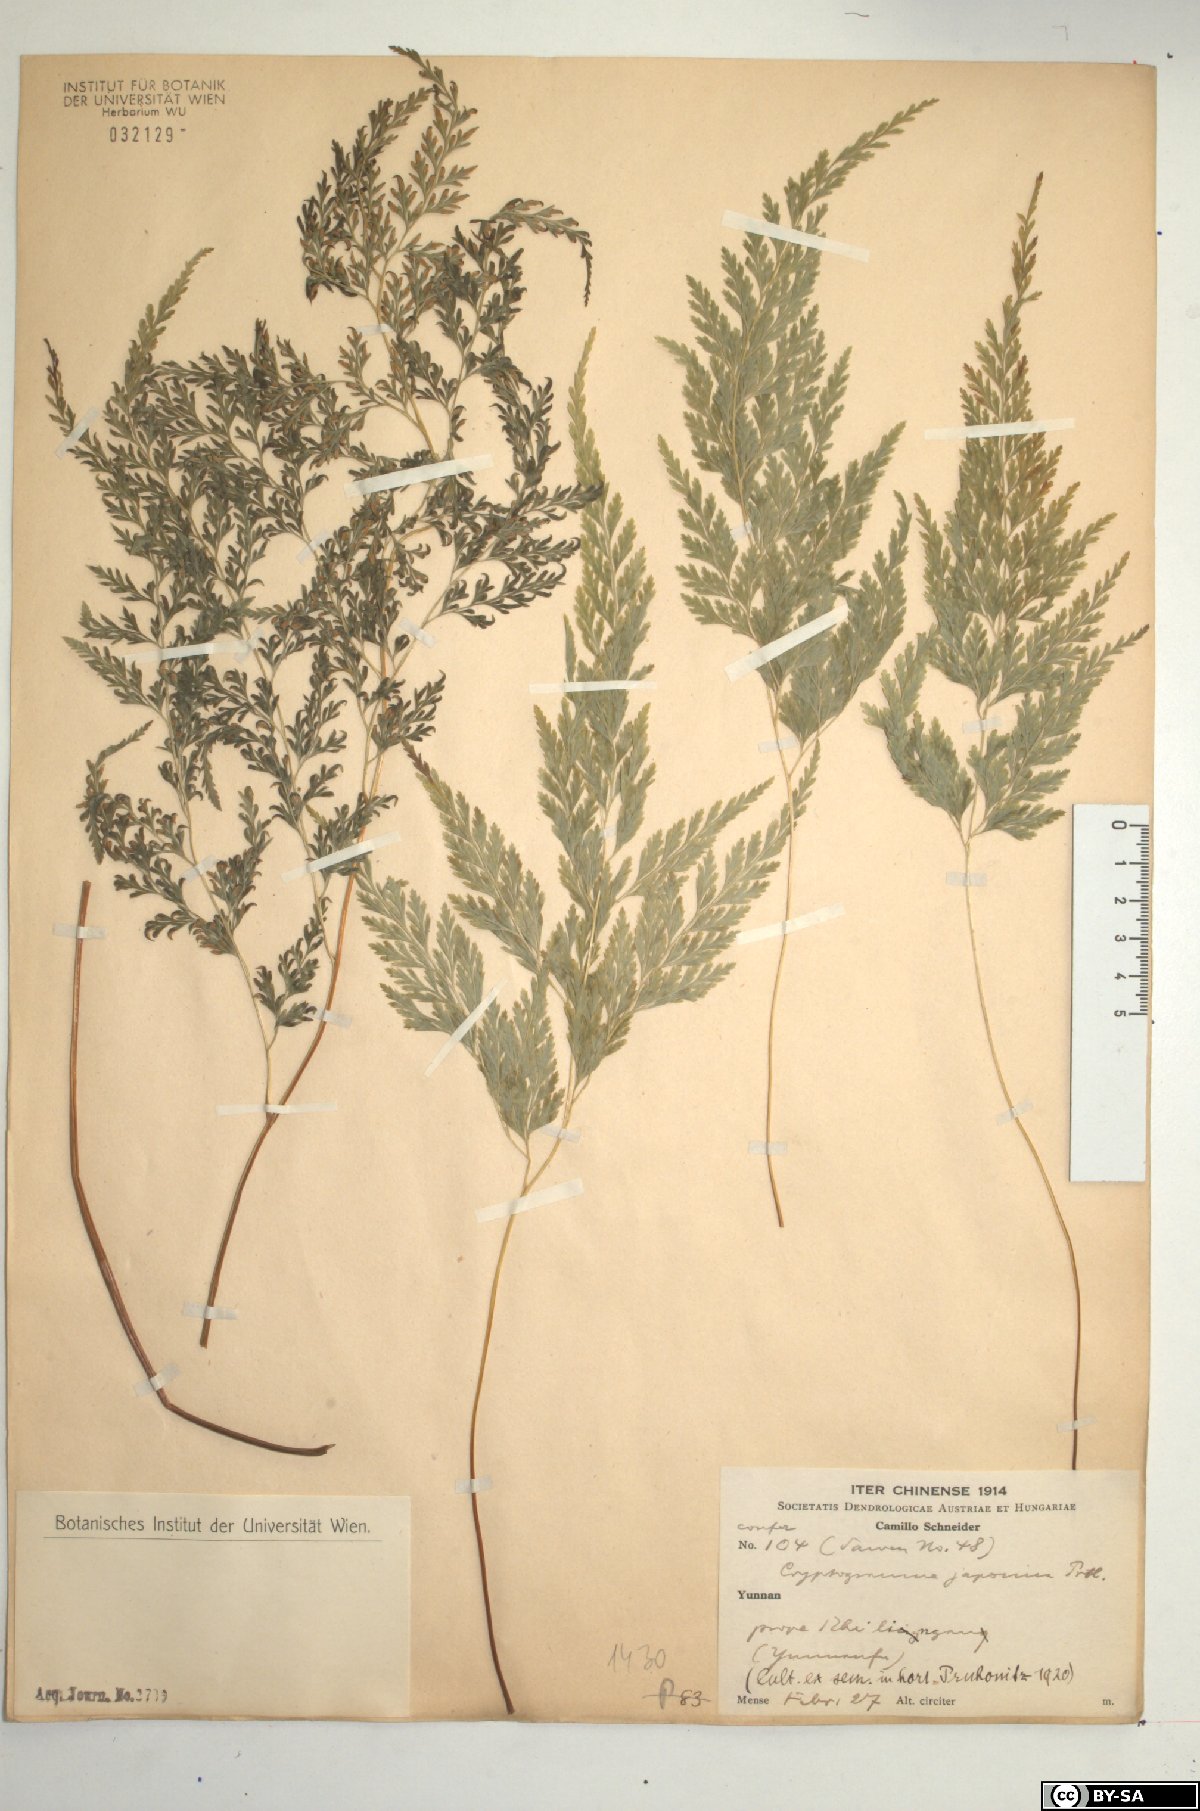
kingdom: Plantae
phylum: Tracheophyta
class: Polypodiopsida
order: Polypodiales
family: Pteridaceae
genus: Onychium
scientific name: Onychium japonicum
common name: Carrot fern
